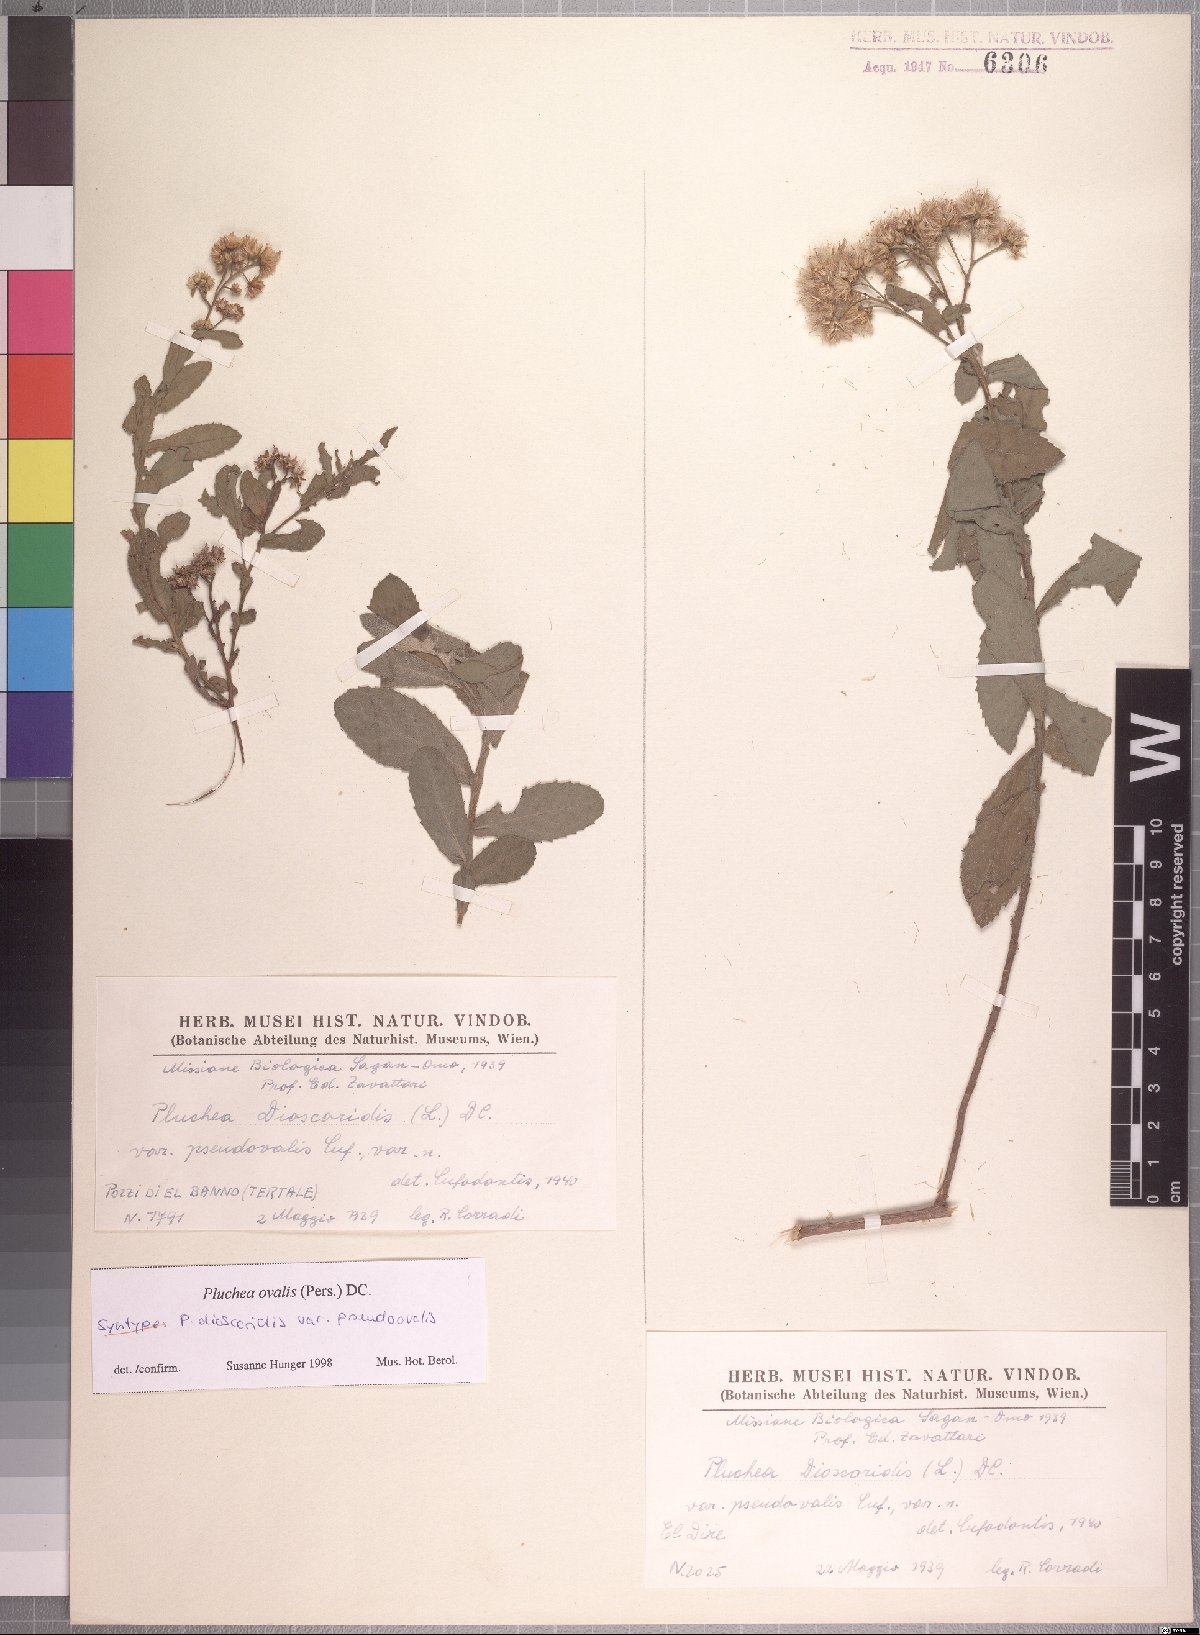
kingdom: Plantae
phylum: Tracheophyta
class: Magnoliopsida
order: Asterales
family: Asteraceae
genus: Pluchea
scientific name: Pluchea ovalis
